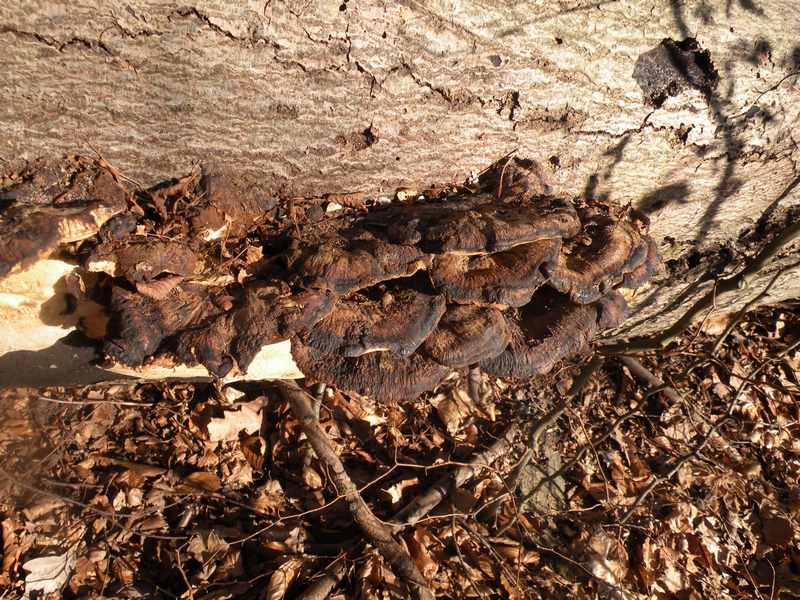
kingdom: Fungi
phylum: Basidiomycota
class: Agaricomycetes
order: Polyporales
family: Ischnodermataceae
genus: Ischnoderma
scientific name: Ischnoderma resinosum
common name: løv-tjæreporesvamp
